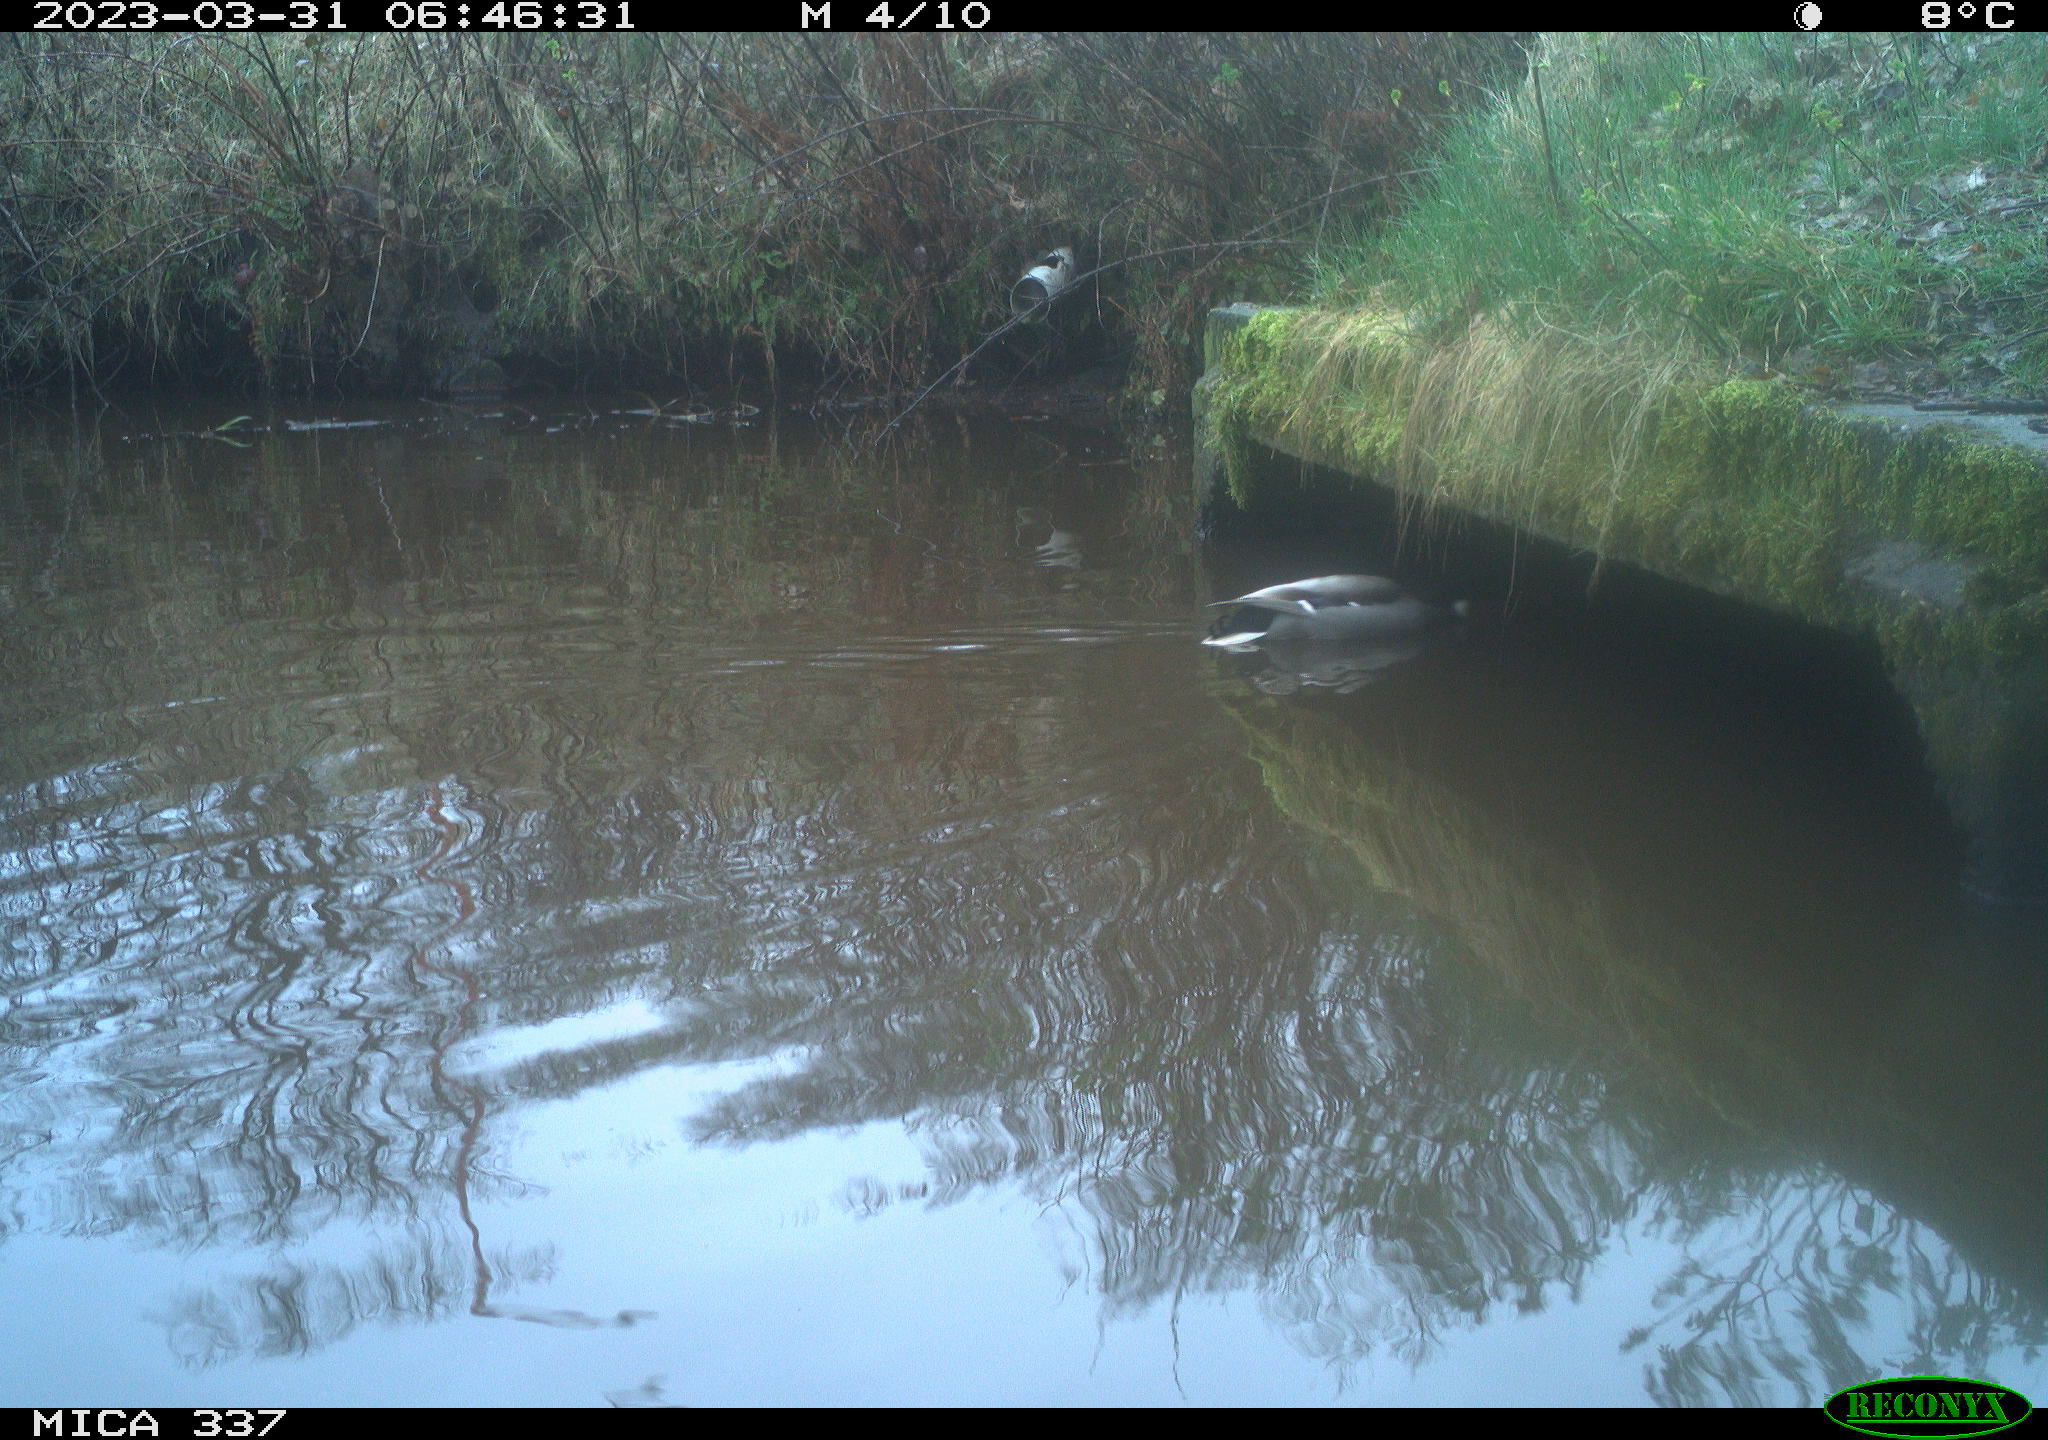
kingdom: Animalia
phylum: Chordata
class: Aves
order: Anseriformes
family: Anatidae
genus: Anas
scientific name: Anas
